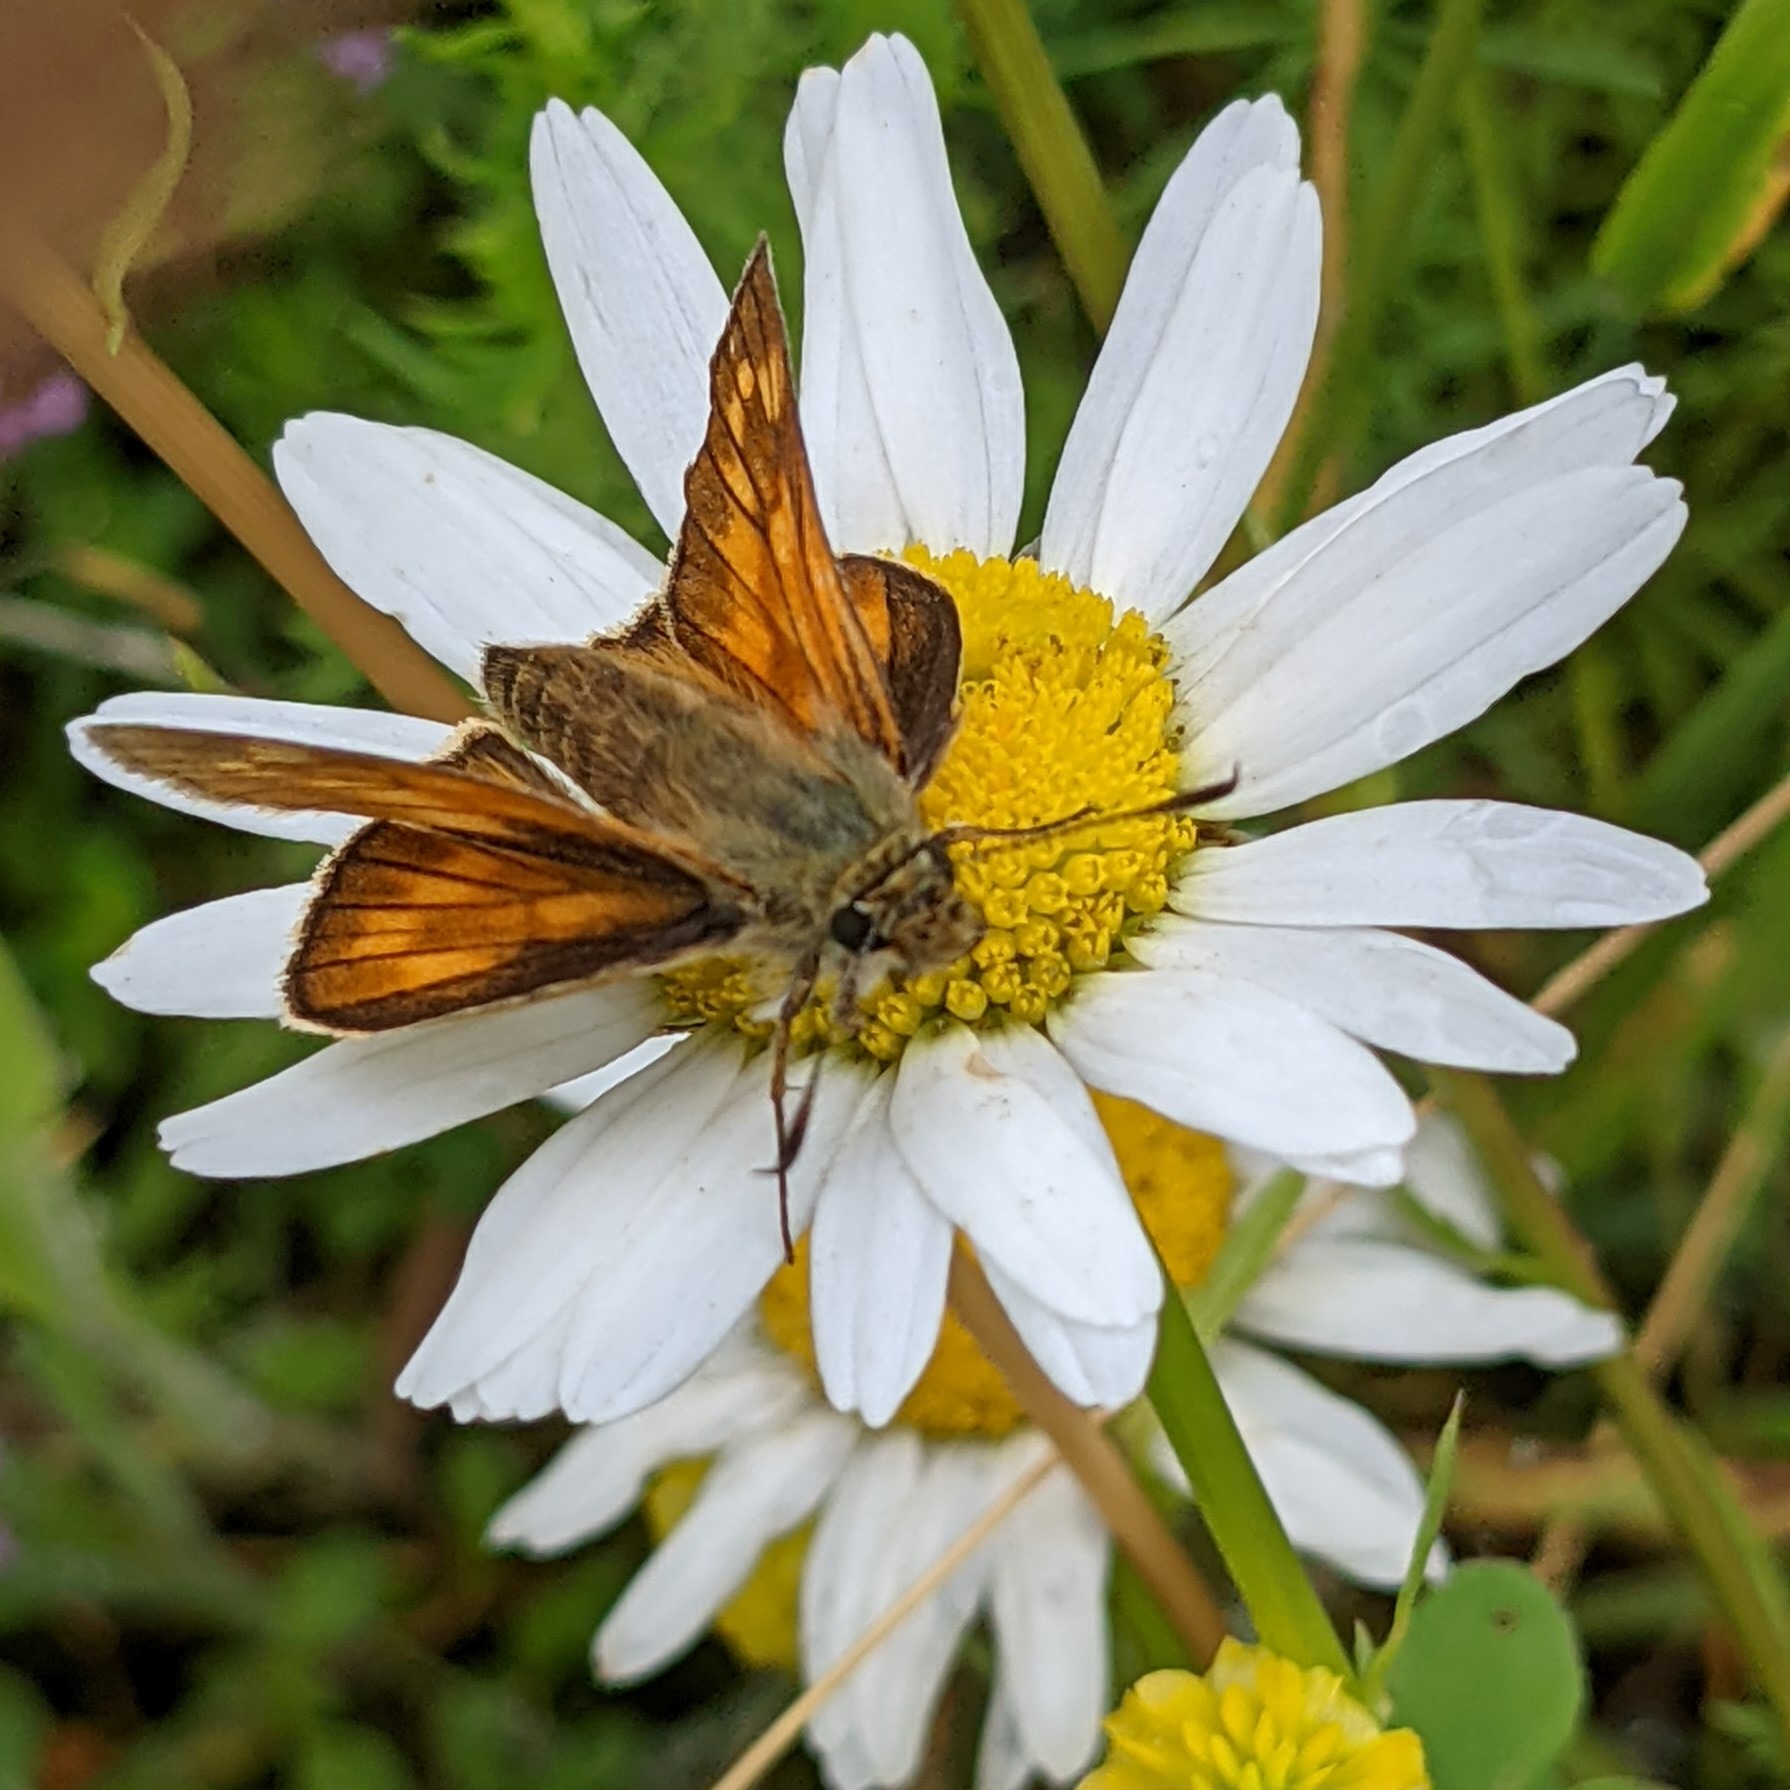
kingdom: Animalia
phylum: Arthropoda
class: Insecta
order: Lepidoptera
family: Hesperiidae
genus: Ochlodes
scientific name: Ochlodes venata
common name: Stor bredpande
